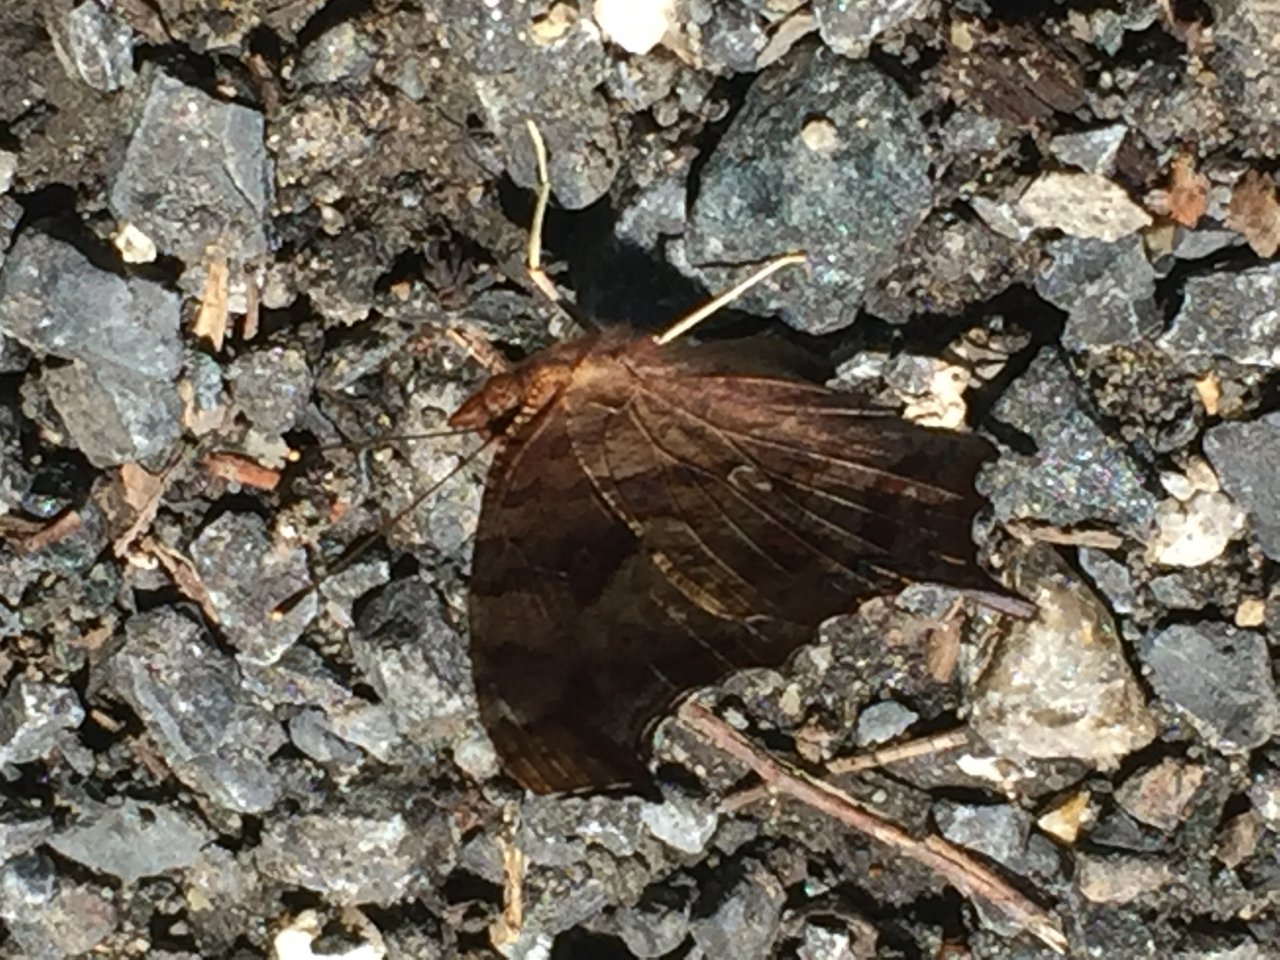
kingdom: Animalia
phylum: Arthropoda
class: Insecta
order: Lepidoptera
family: Nymphalidae
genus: Polygonia
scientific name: Polygonia interrogationis
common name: Question Mark
